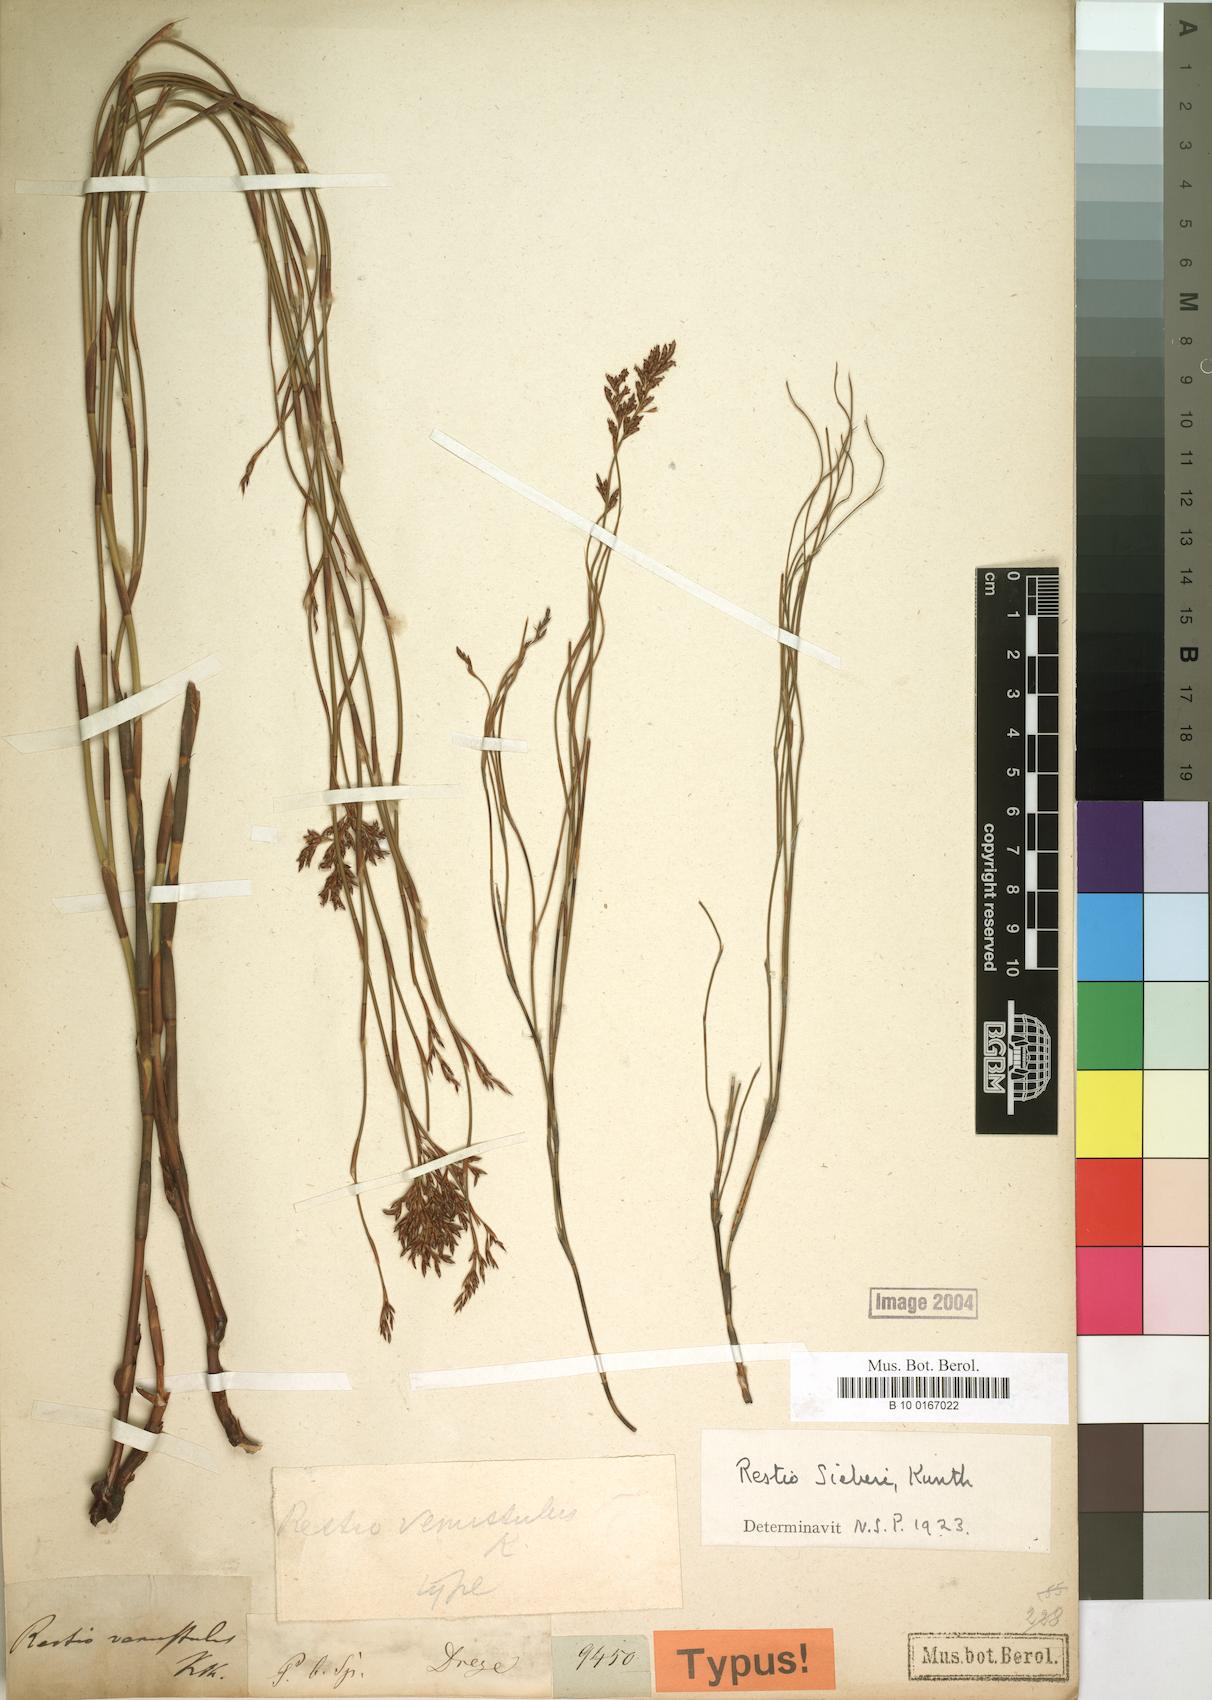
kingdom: Plantae
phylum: Tracheophyta
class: Liliopsida
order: Poales
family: Restionaceae
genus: Restio
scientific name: Restio sieberi
